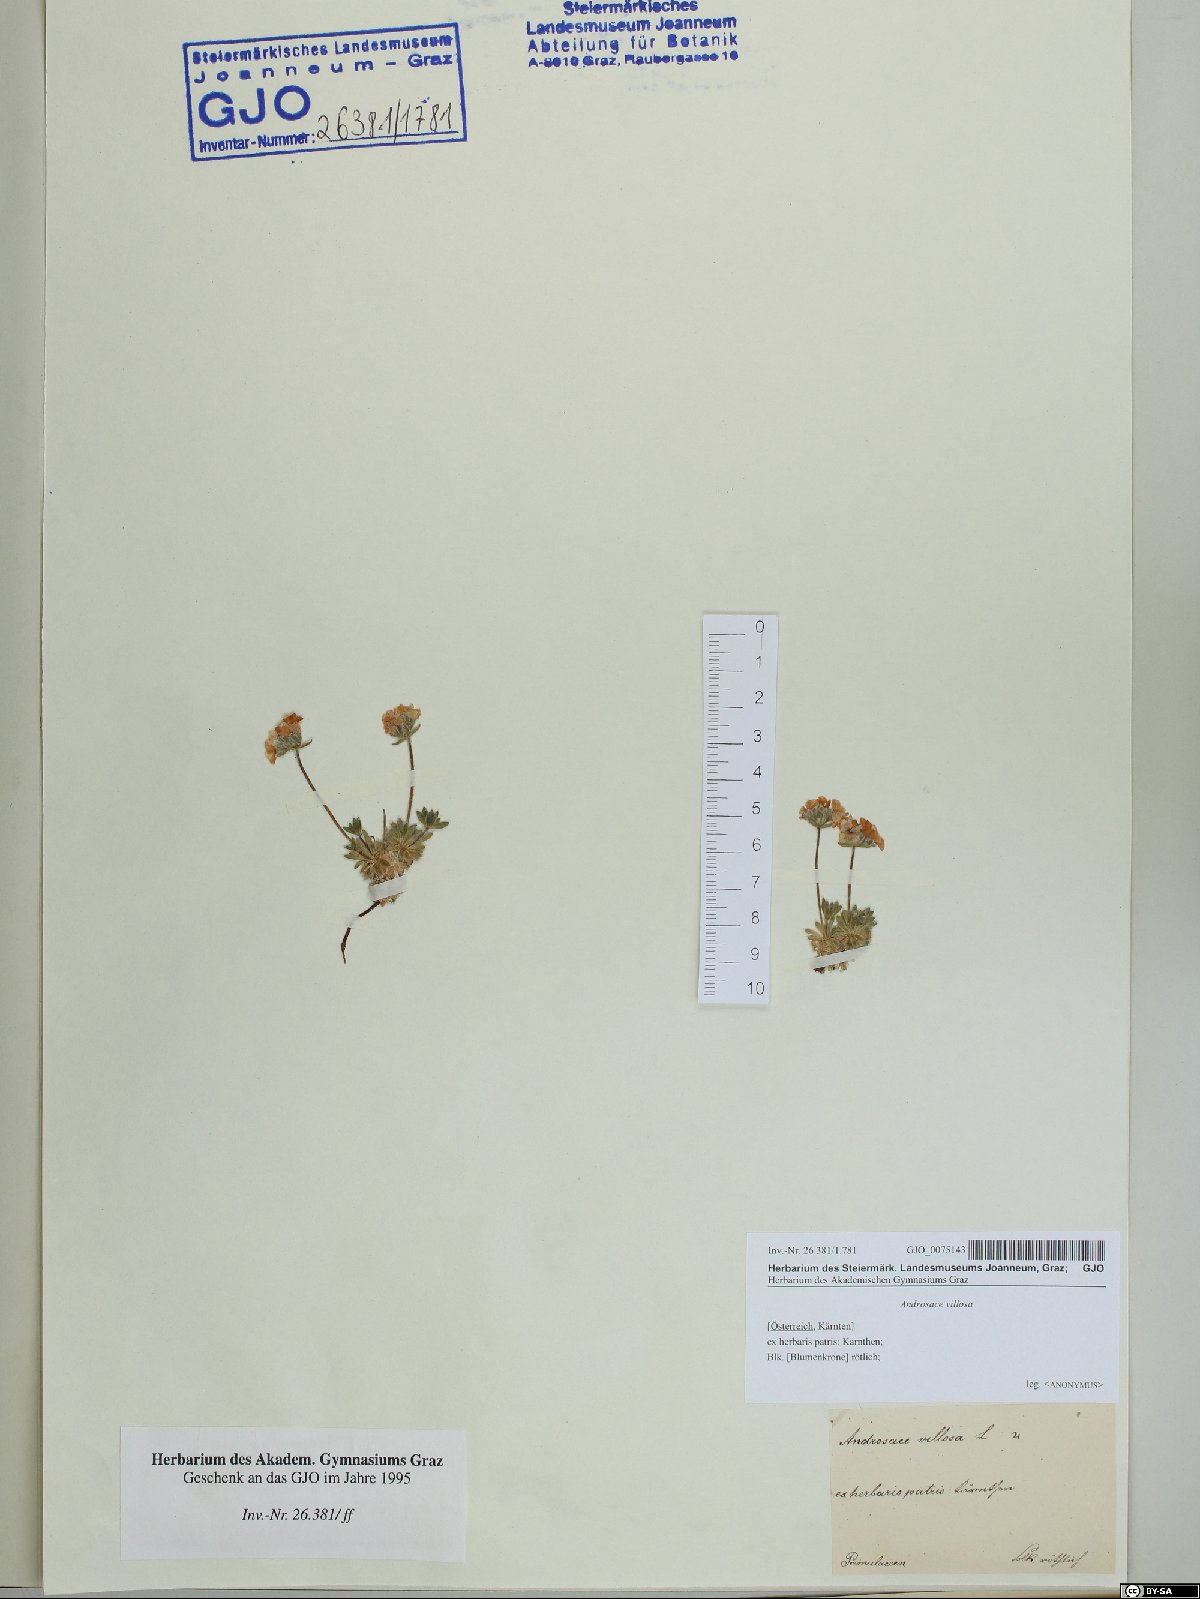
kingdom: Plantae
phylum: Tracheophyta
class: Magnoliopsida
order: Ericales
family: Primulaceae
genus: Androsace
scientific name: Androsace villosa
